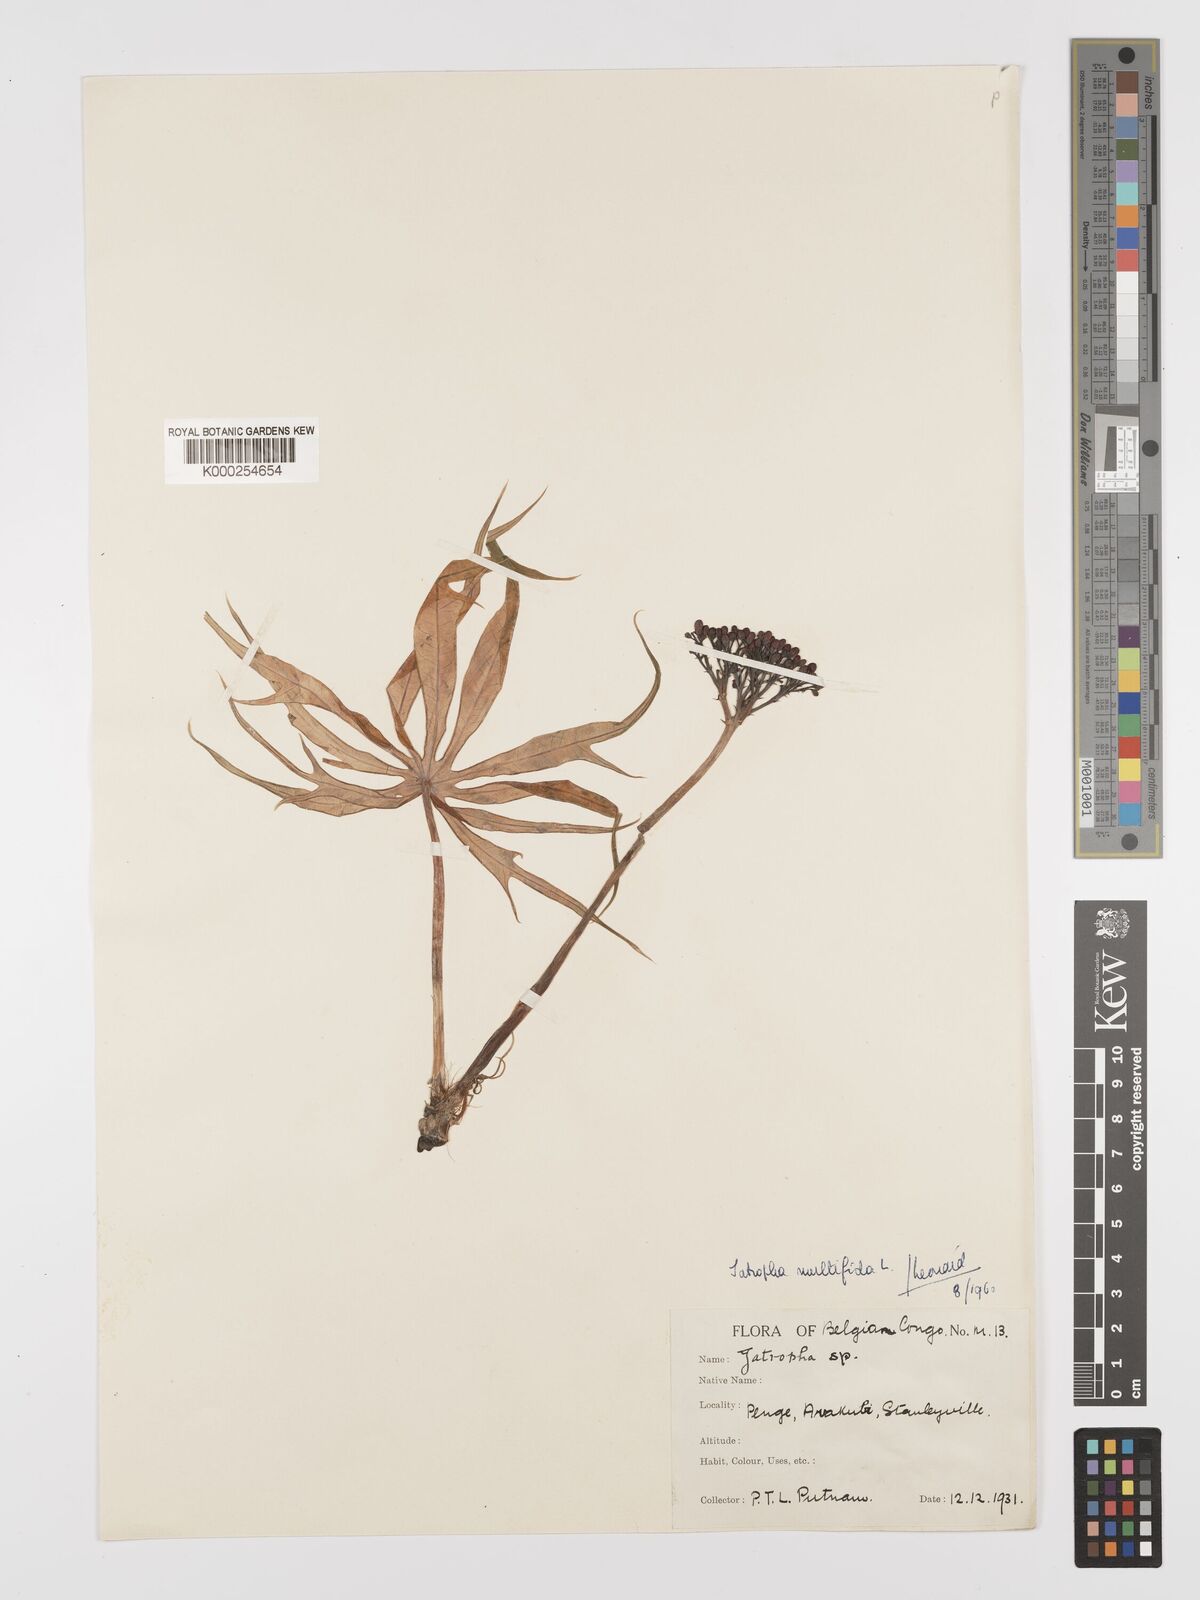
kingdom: Plantae
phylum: Tracheophyta
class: Magnoliopsida
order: Malpighiales
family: Euphorbiaceae
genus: Jatropha
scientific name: Jatropha multifida
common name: Coralbush
